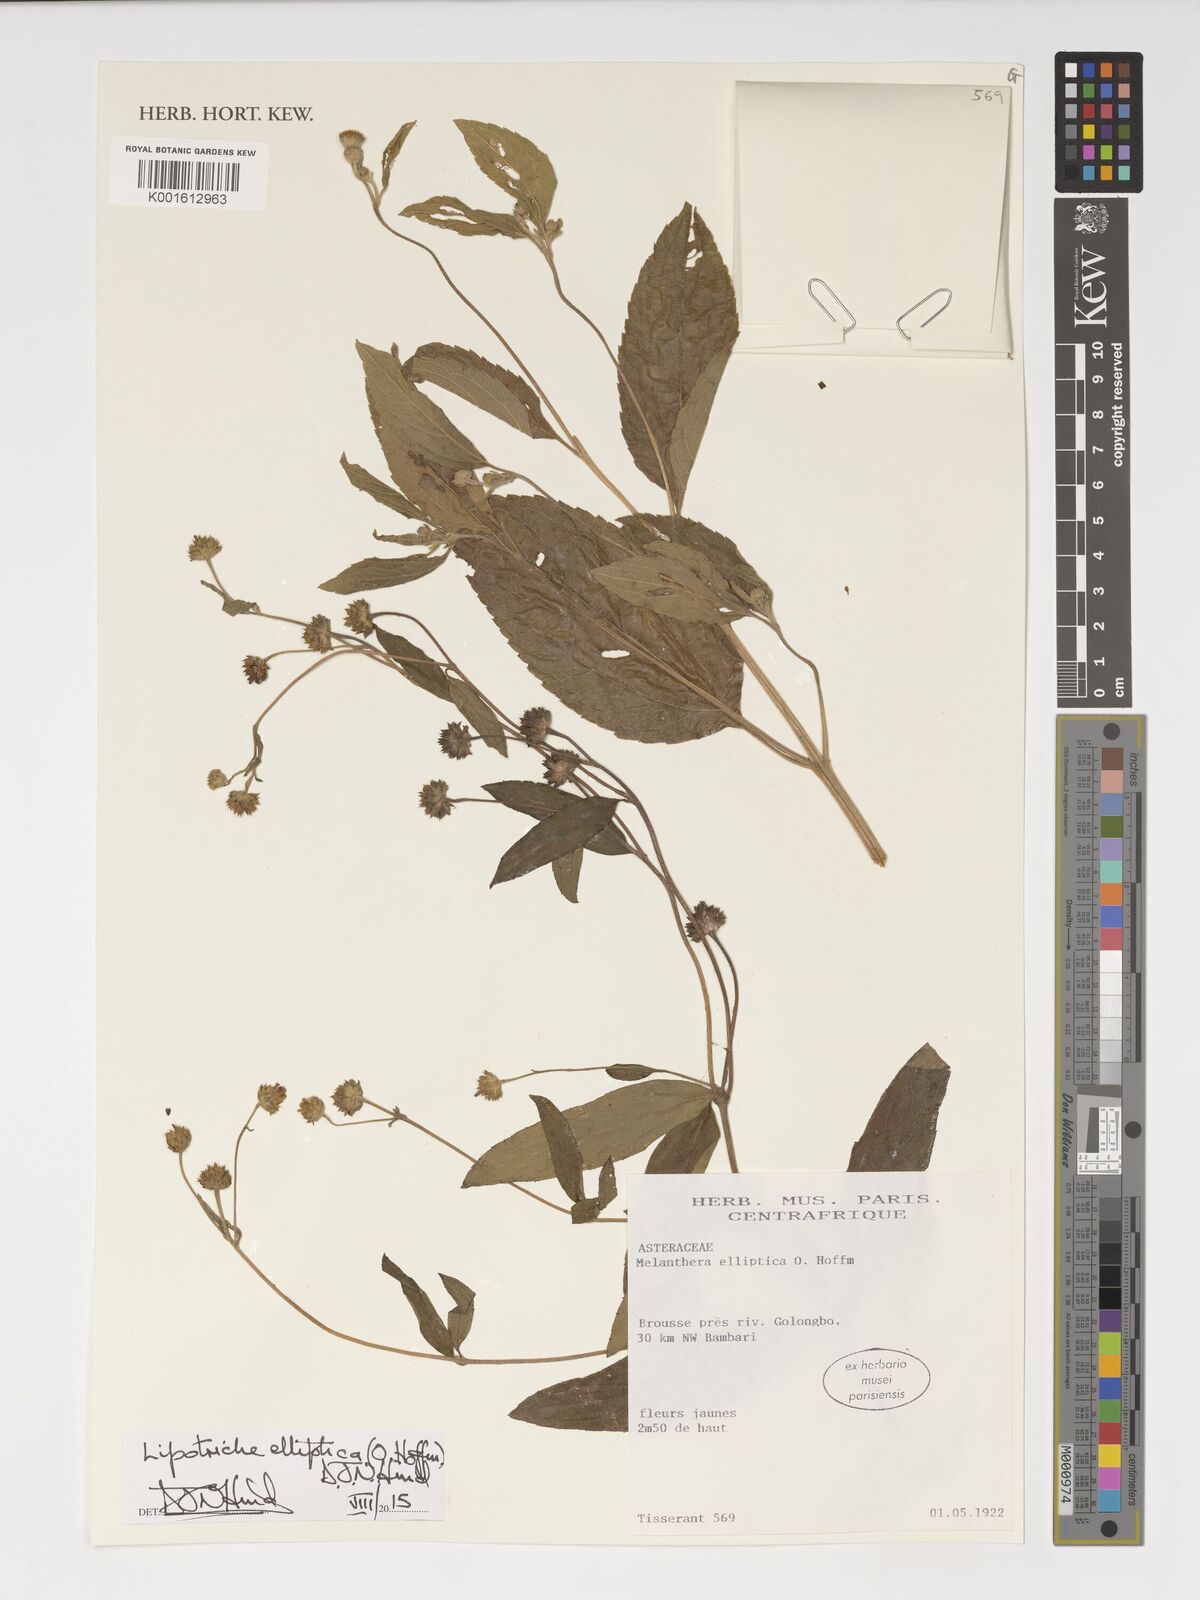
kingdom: Plantae
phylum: Tracheophyta
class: Magnoliopsida
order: Asterales
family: Asteraceae
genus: Lipotriche
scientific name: Lipotriche elliptica
